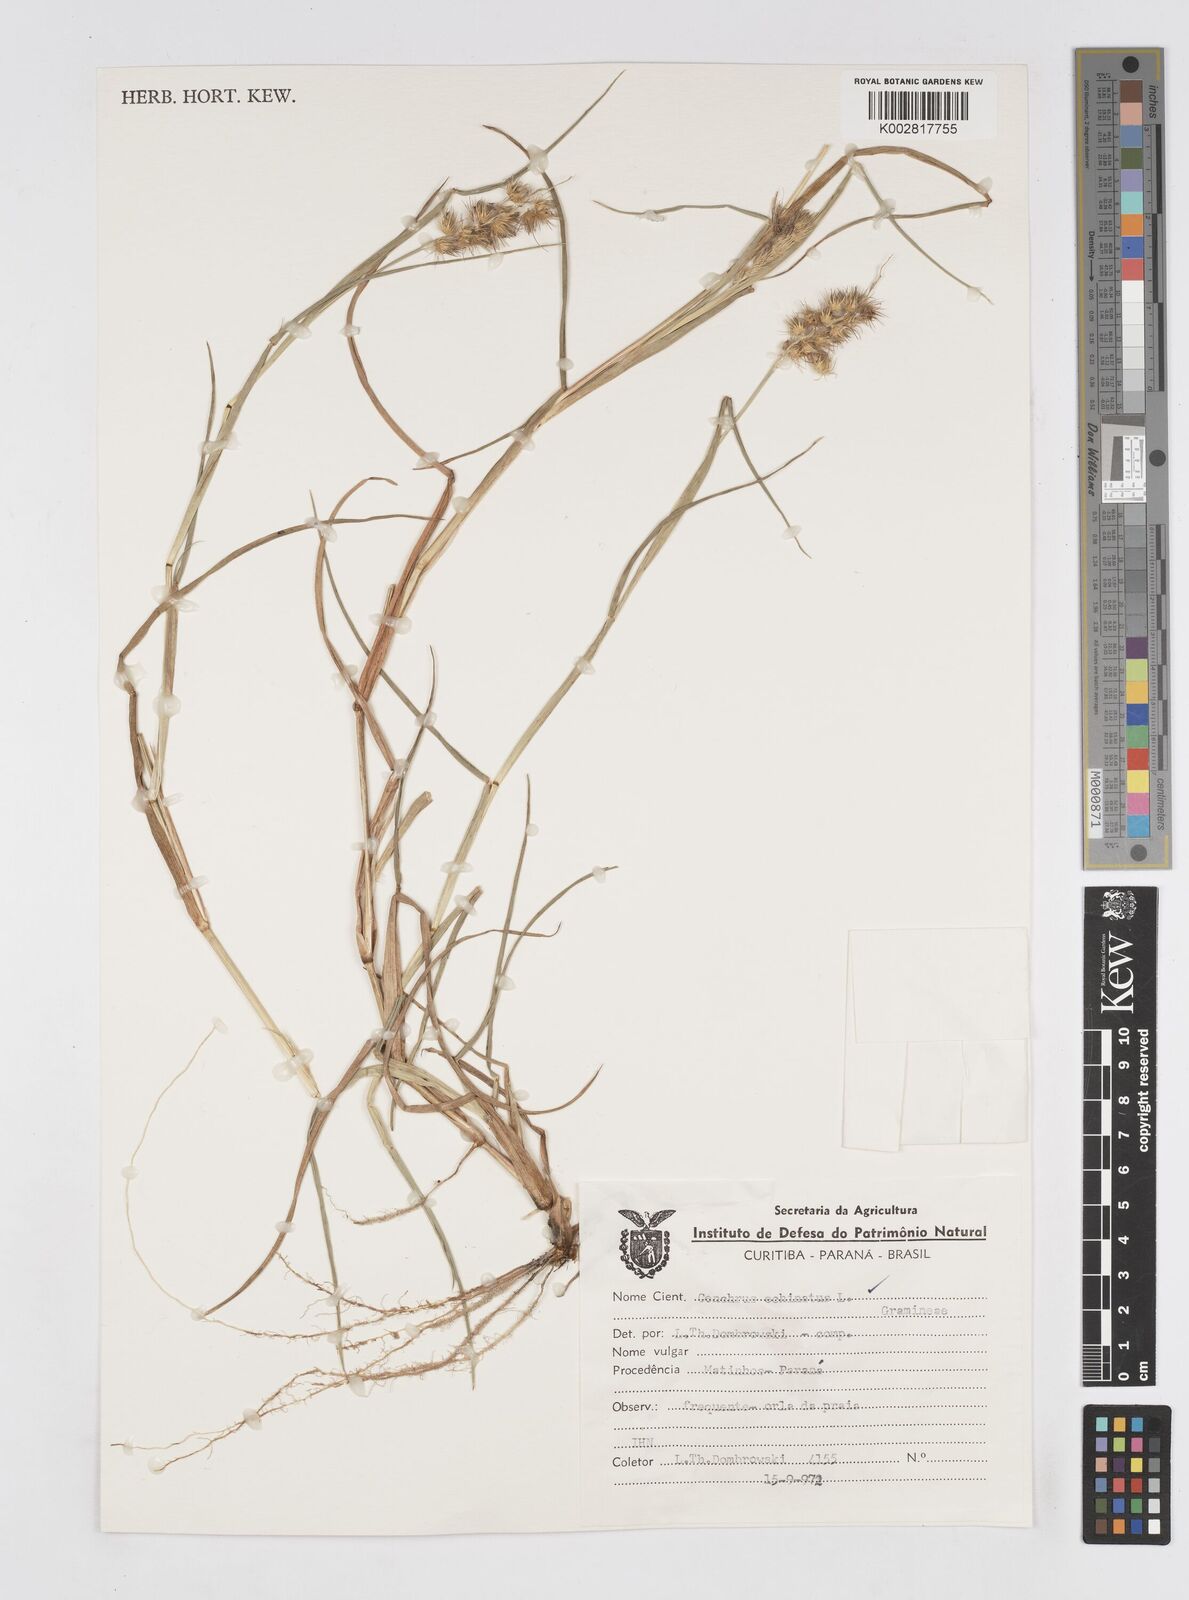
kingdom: Plantae
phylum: Tracheophyta
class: Liliopsida
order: Poales
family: Poaceae
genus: Cenchrus
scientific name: Cenchrus
